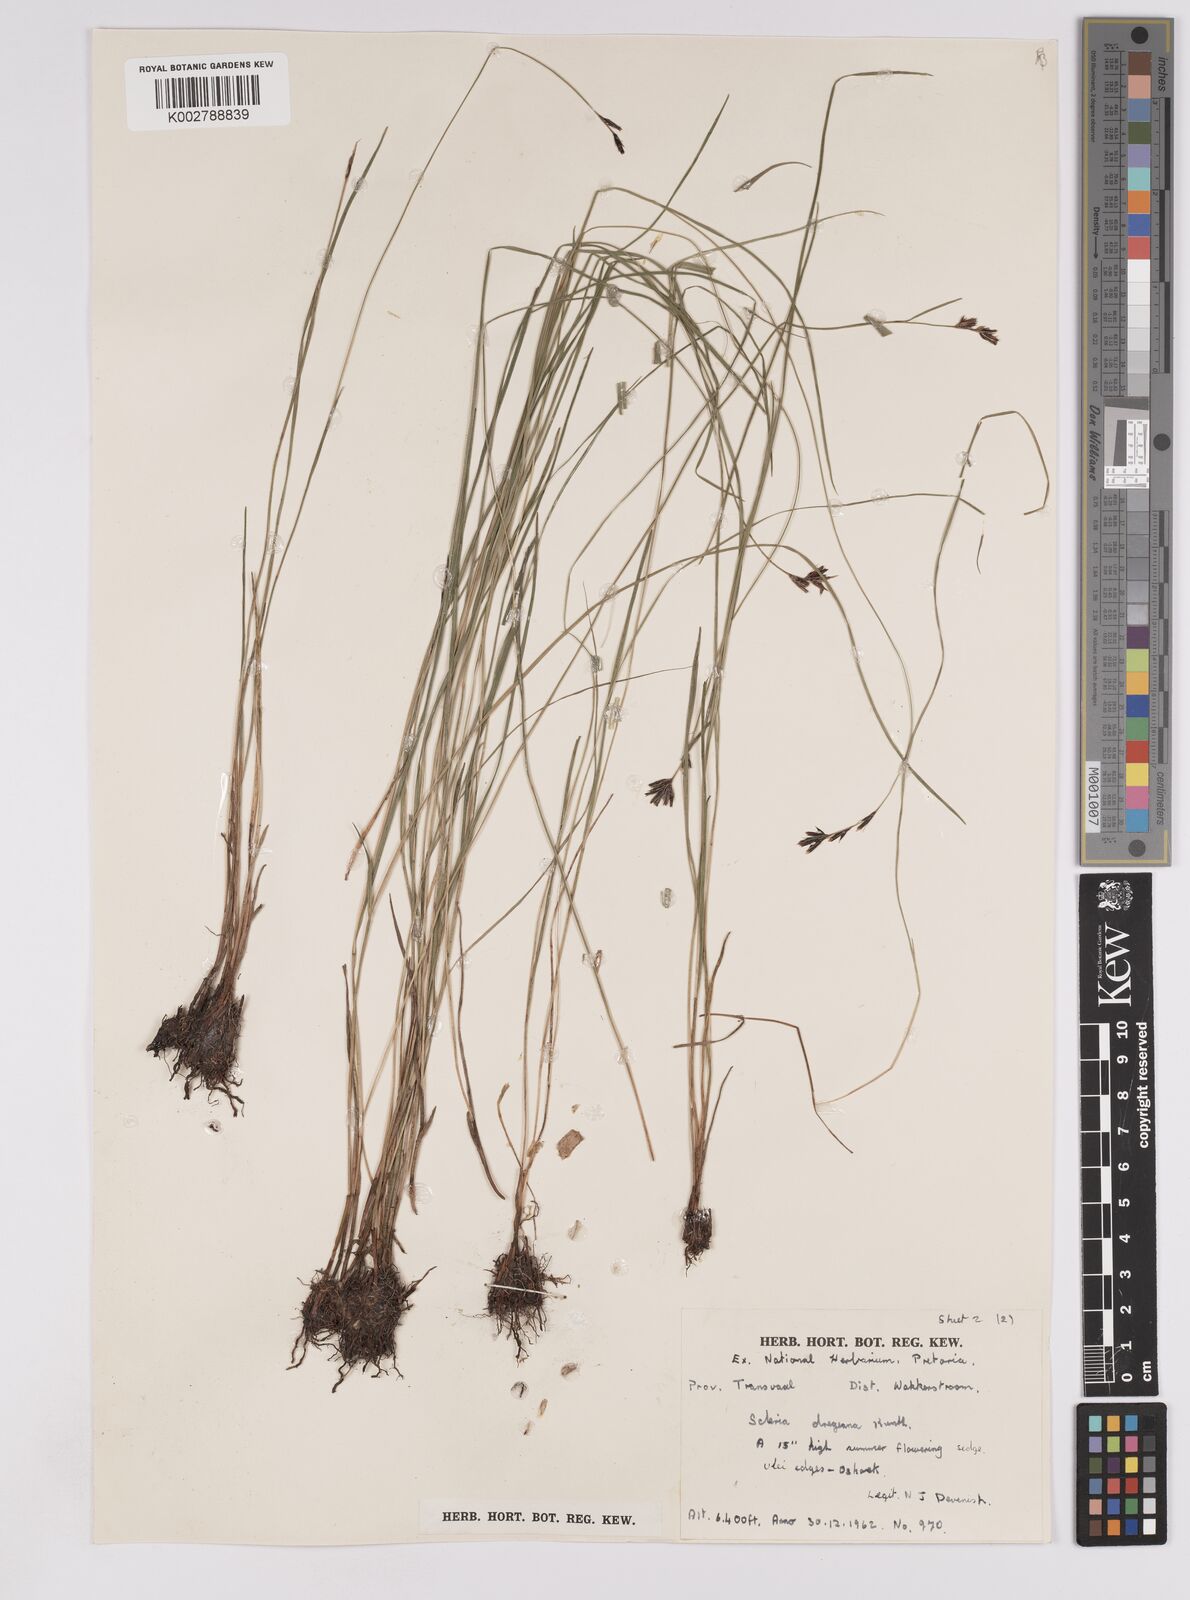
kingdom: Plantae
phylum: Tracheophyta
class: Liliopsida
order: Poales
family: Cyperaceae
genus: Scleria
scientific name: Scleria dregeana
